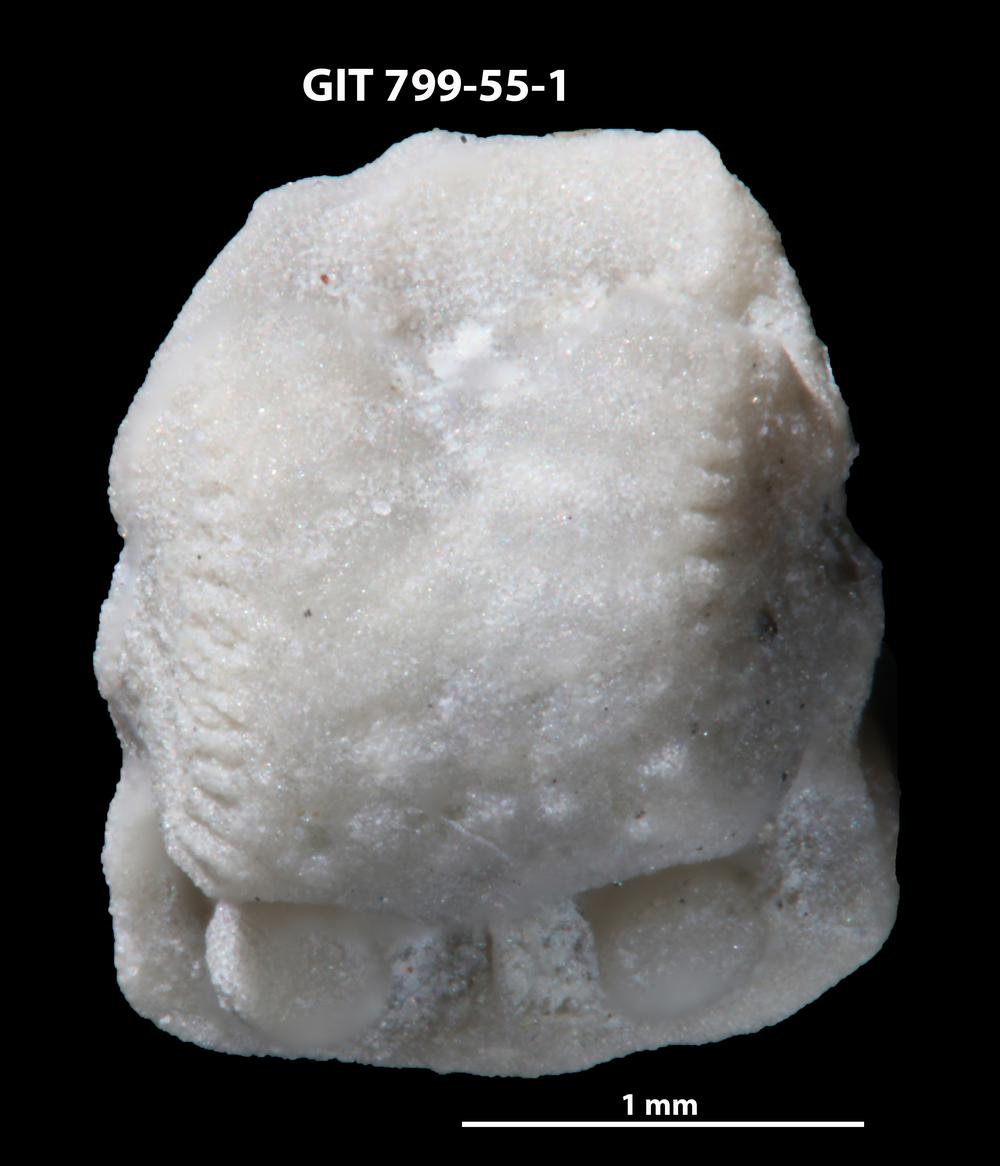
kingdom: Animalia
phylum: Echinodermata
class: Crinoidea
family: Cyclocystoididae
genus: Polytryphocycloides
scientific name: Polytryphocycloides Cyclocystoides lindstroemi
